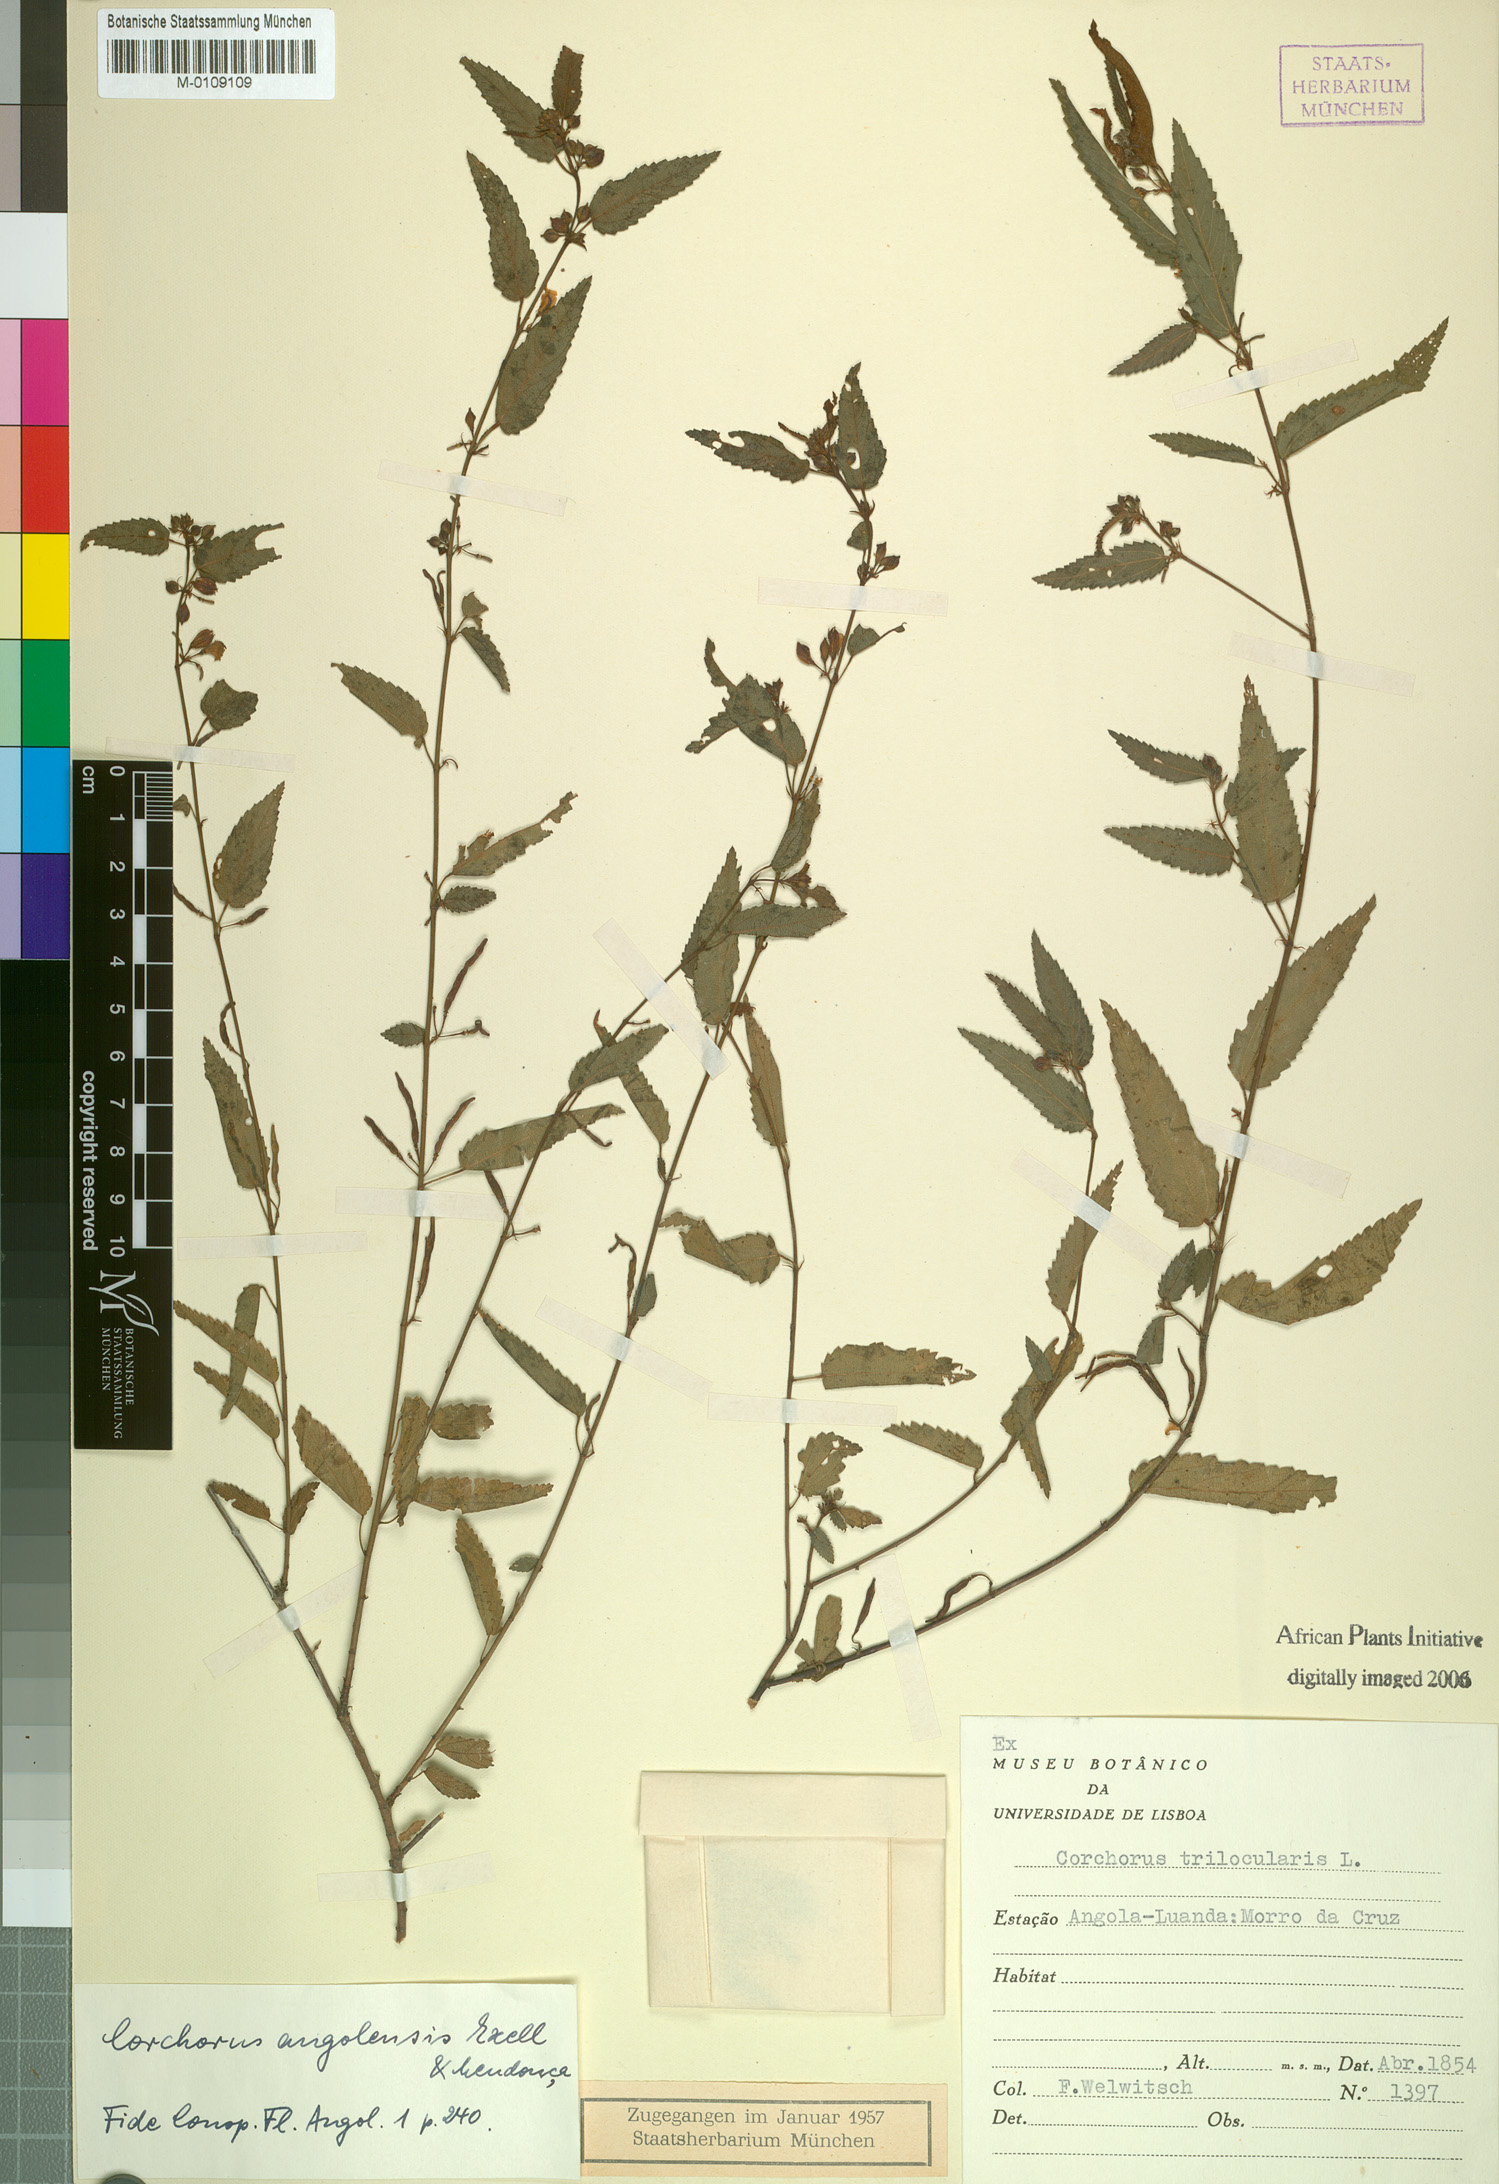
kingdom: Plantae
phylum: Tracheophyta
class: Magnoliopsida
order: Malvales
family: Malvaceae
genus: Corchorus
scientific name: Corchorus angolensis
